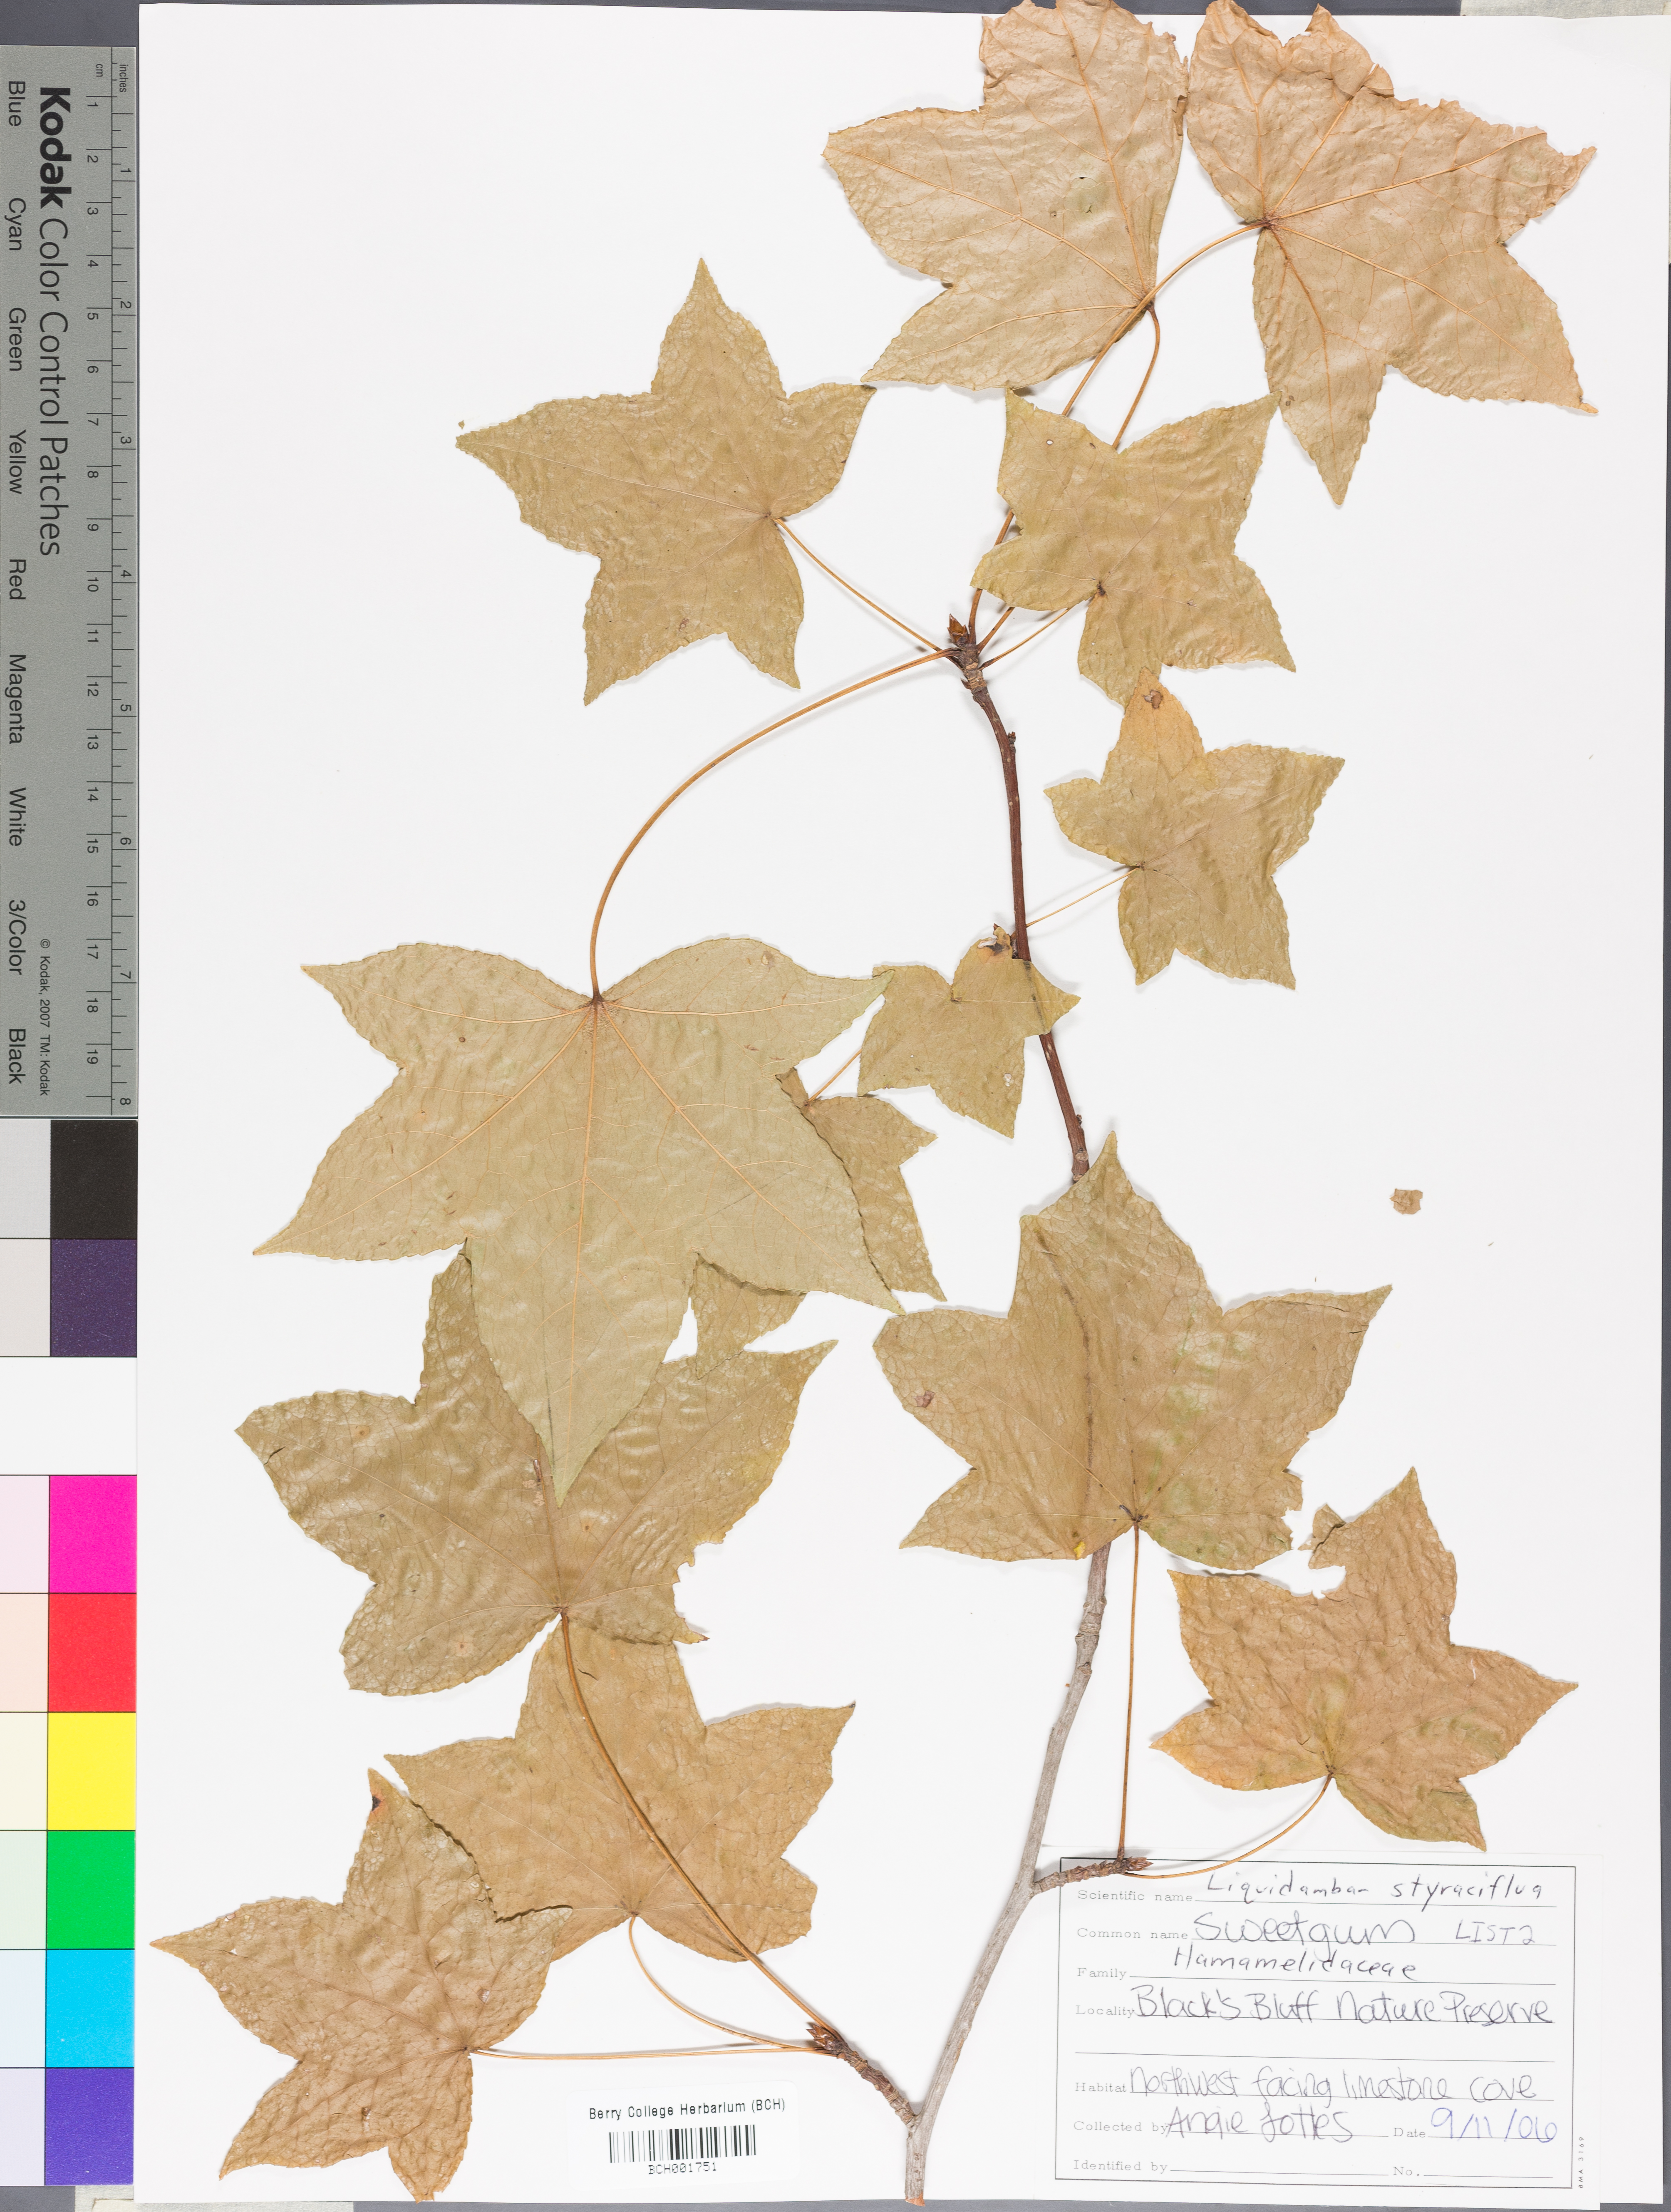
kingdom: Plantae
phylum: Tracheophyta
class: Magnoliopsida
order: Saxifragales
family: Altingiaceae
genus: Liquidambar
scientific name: Liquidambar styraciflua
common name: Sweet gum
